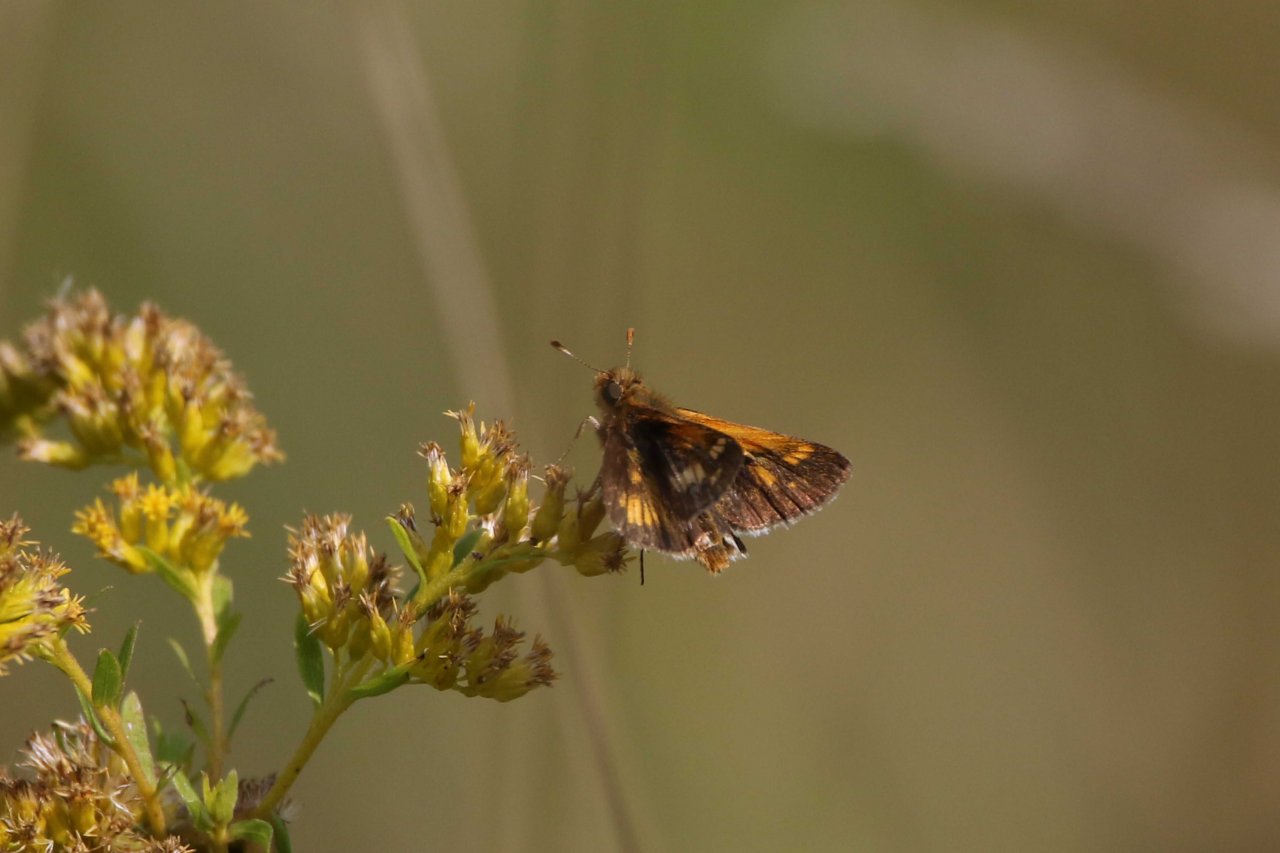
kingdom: Animalia
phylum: Arthropoda
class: Insecta
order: Lepidoptera
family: Hesperiidae
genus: Polites
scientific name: Polites coras
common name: Peck's Skipper
